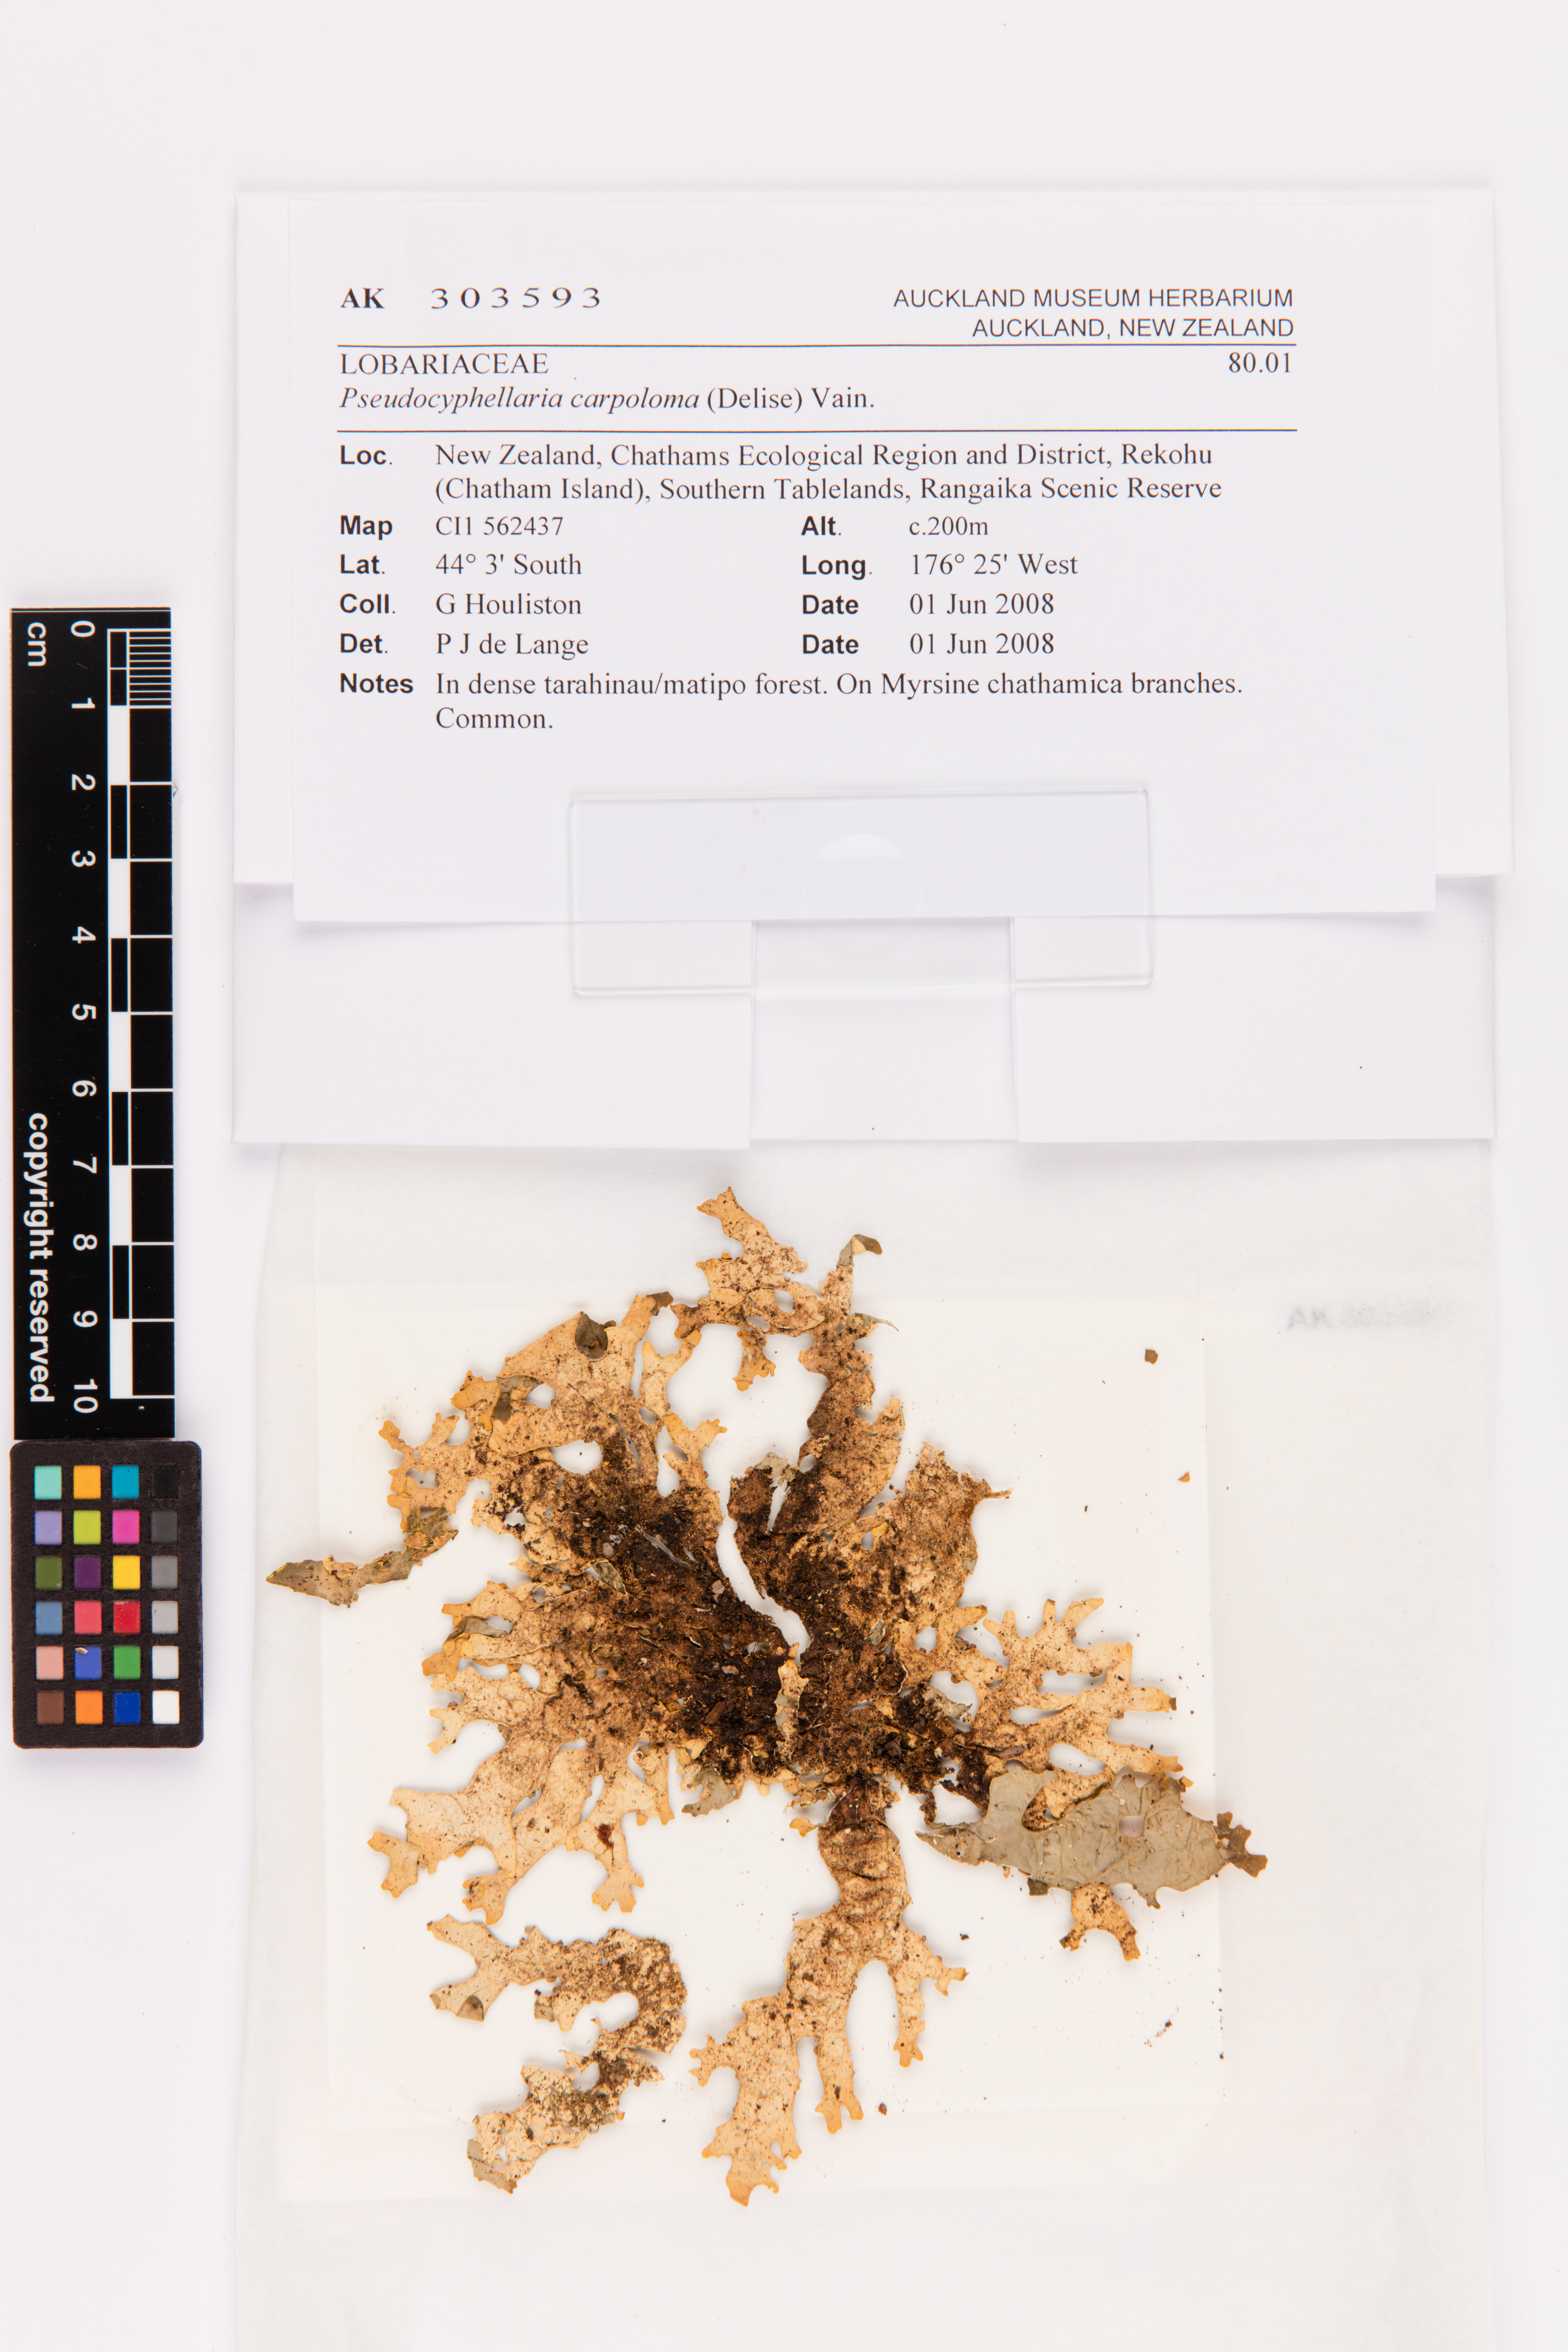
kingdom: Fungi
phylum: Ascomycota
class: Lecanoromycetes
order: Peltigerales
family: Lobariaceae
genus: Pseudocyphellaria
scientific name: Pseudocyphellaria carpoloma
